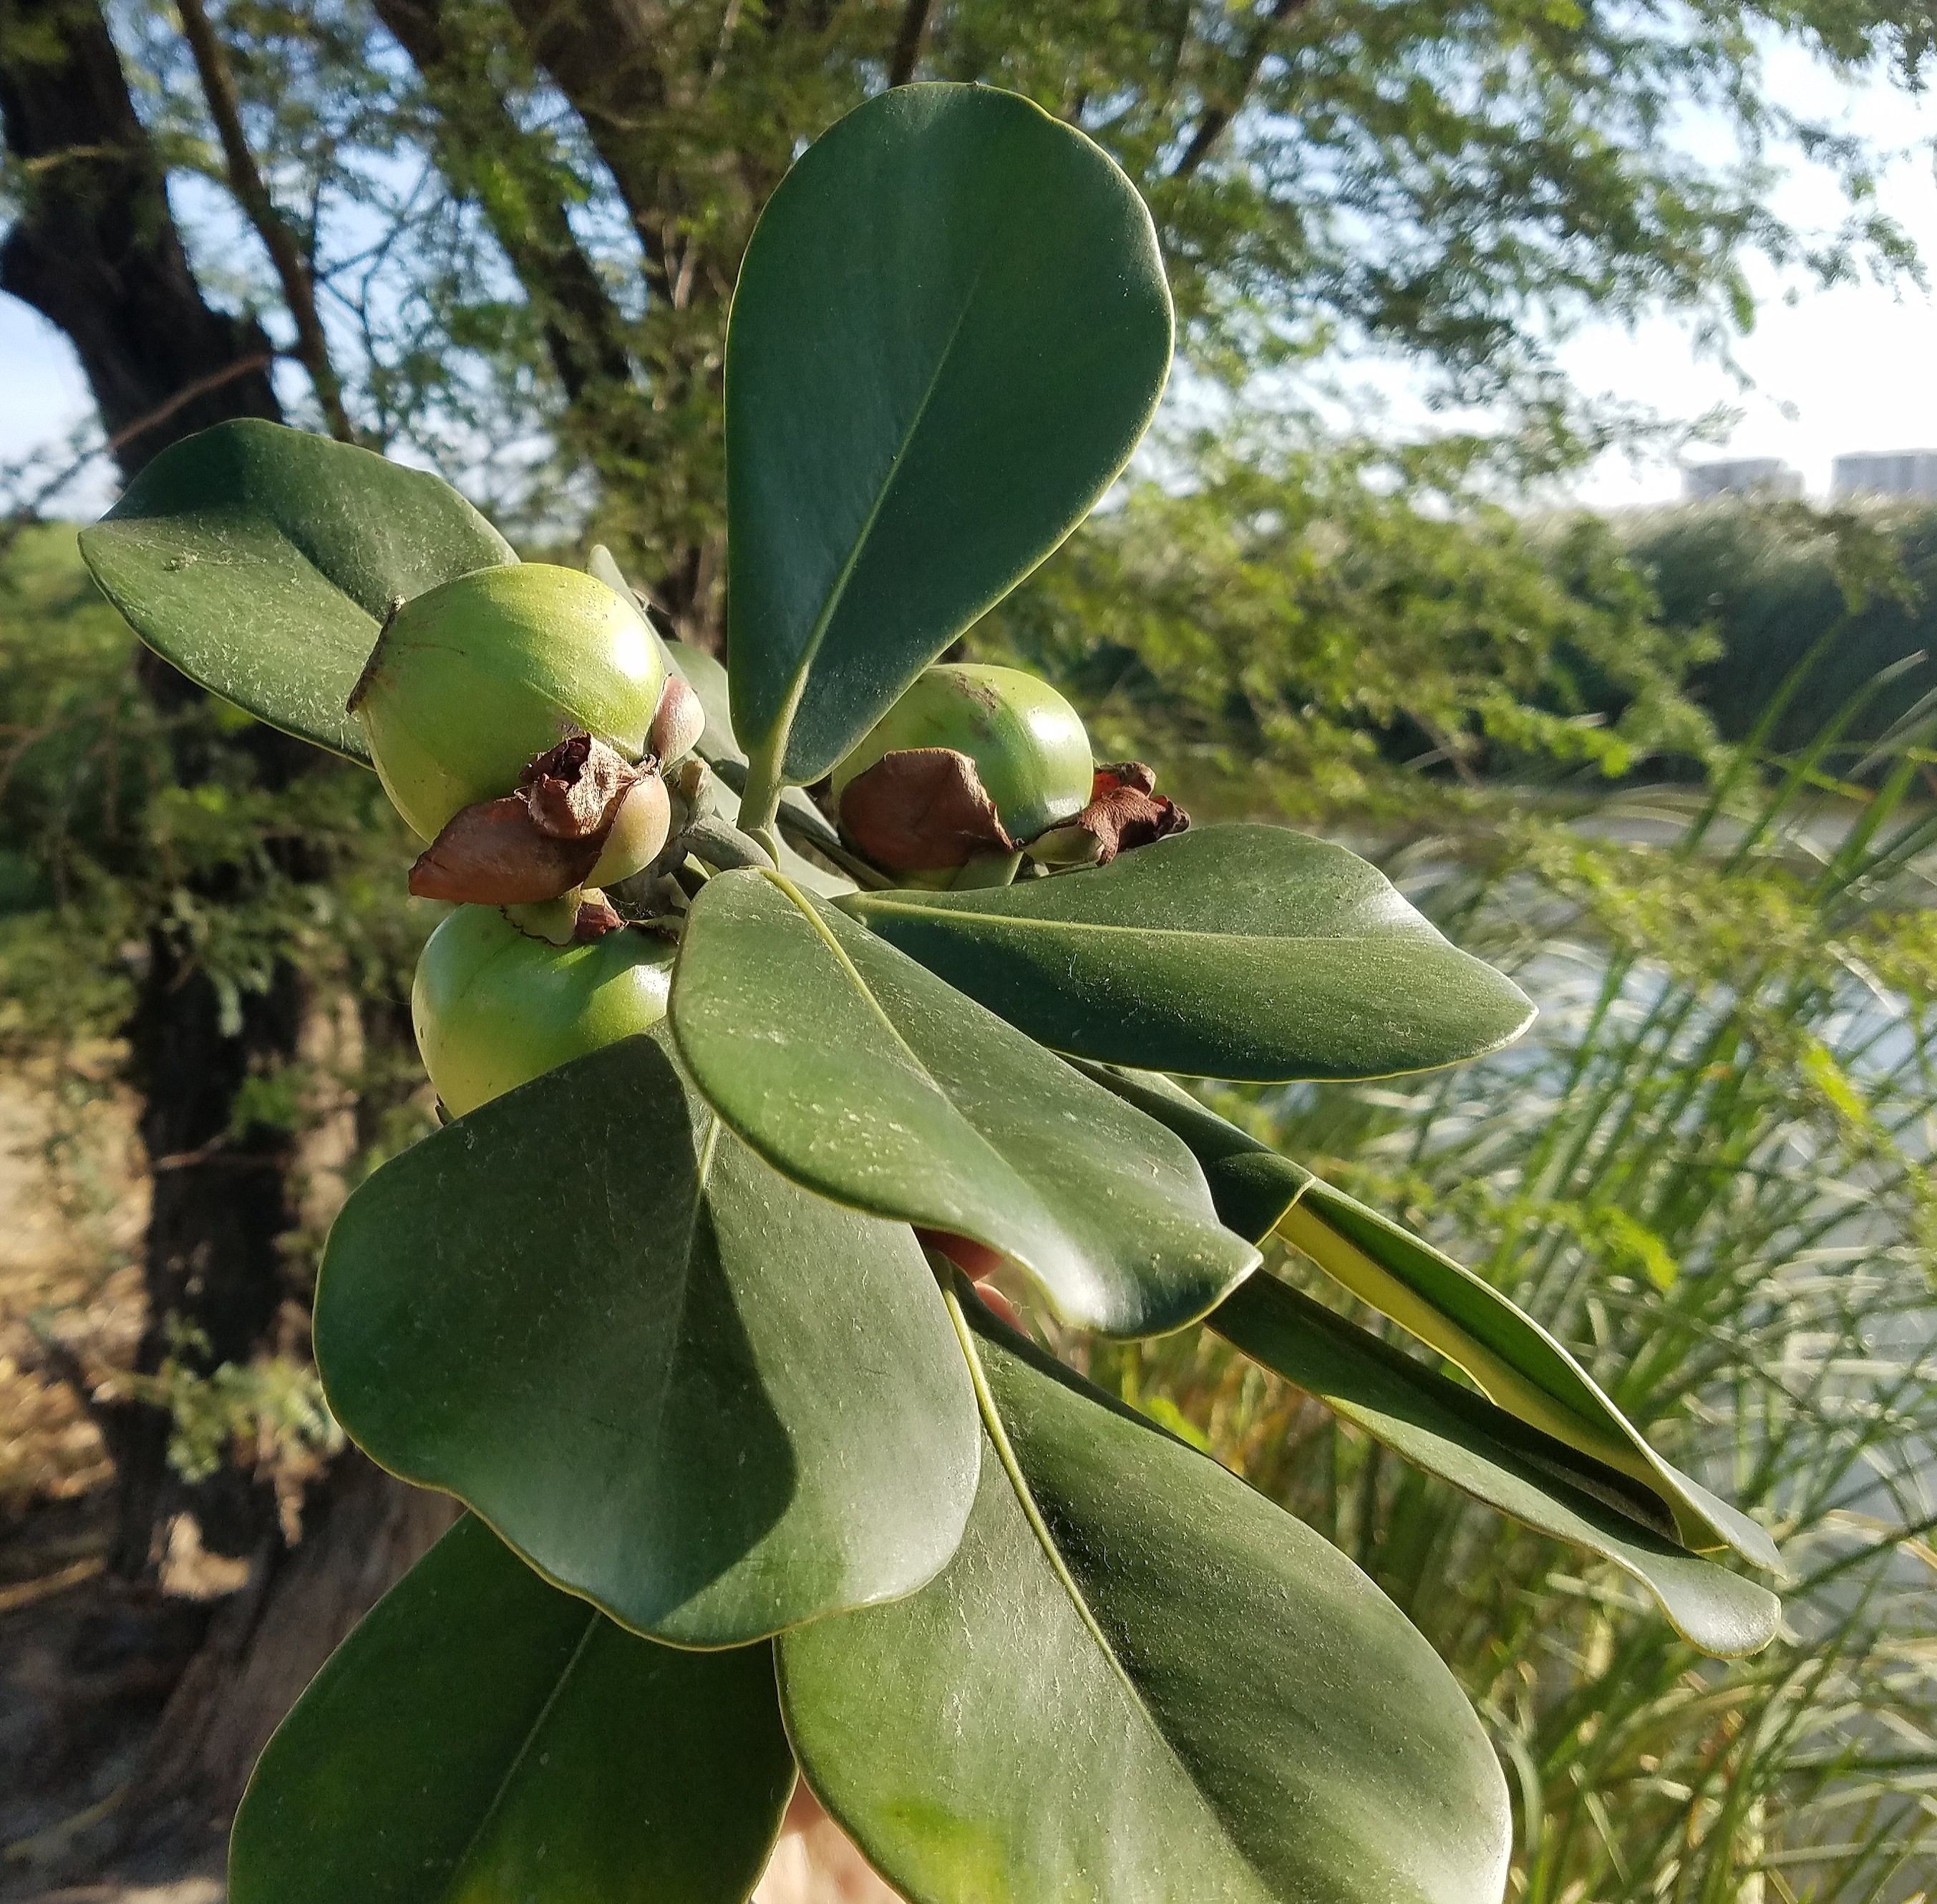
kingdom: Plantae
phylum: Tracheophyta
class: Magnoliopsida
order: Malpighiales
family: Clusiaceae
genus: Clusia
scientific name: Clusia major
